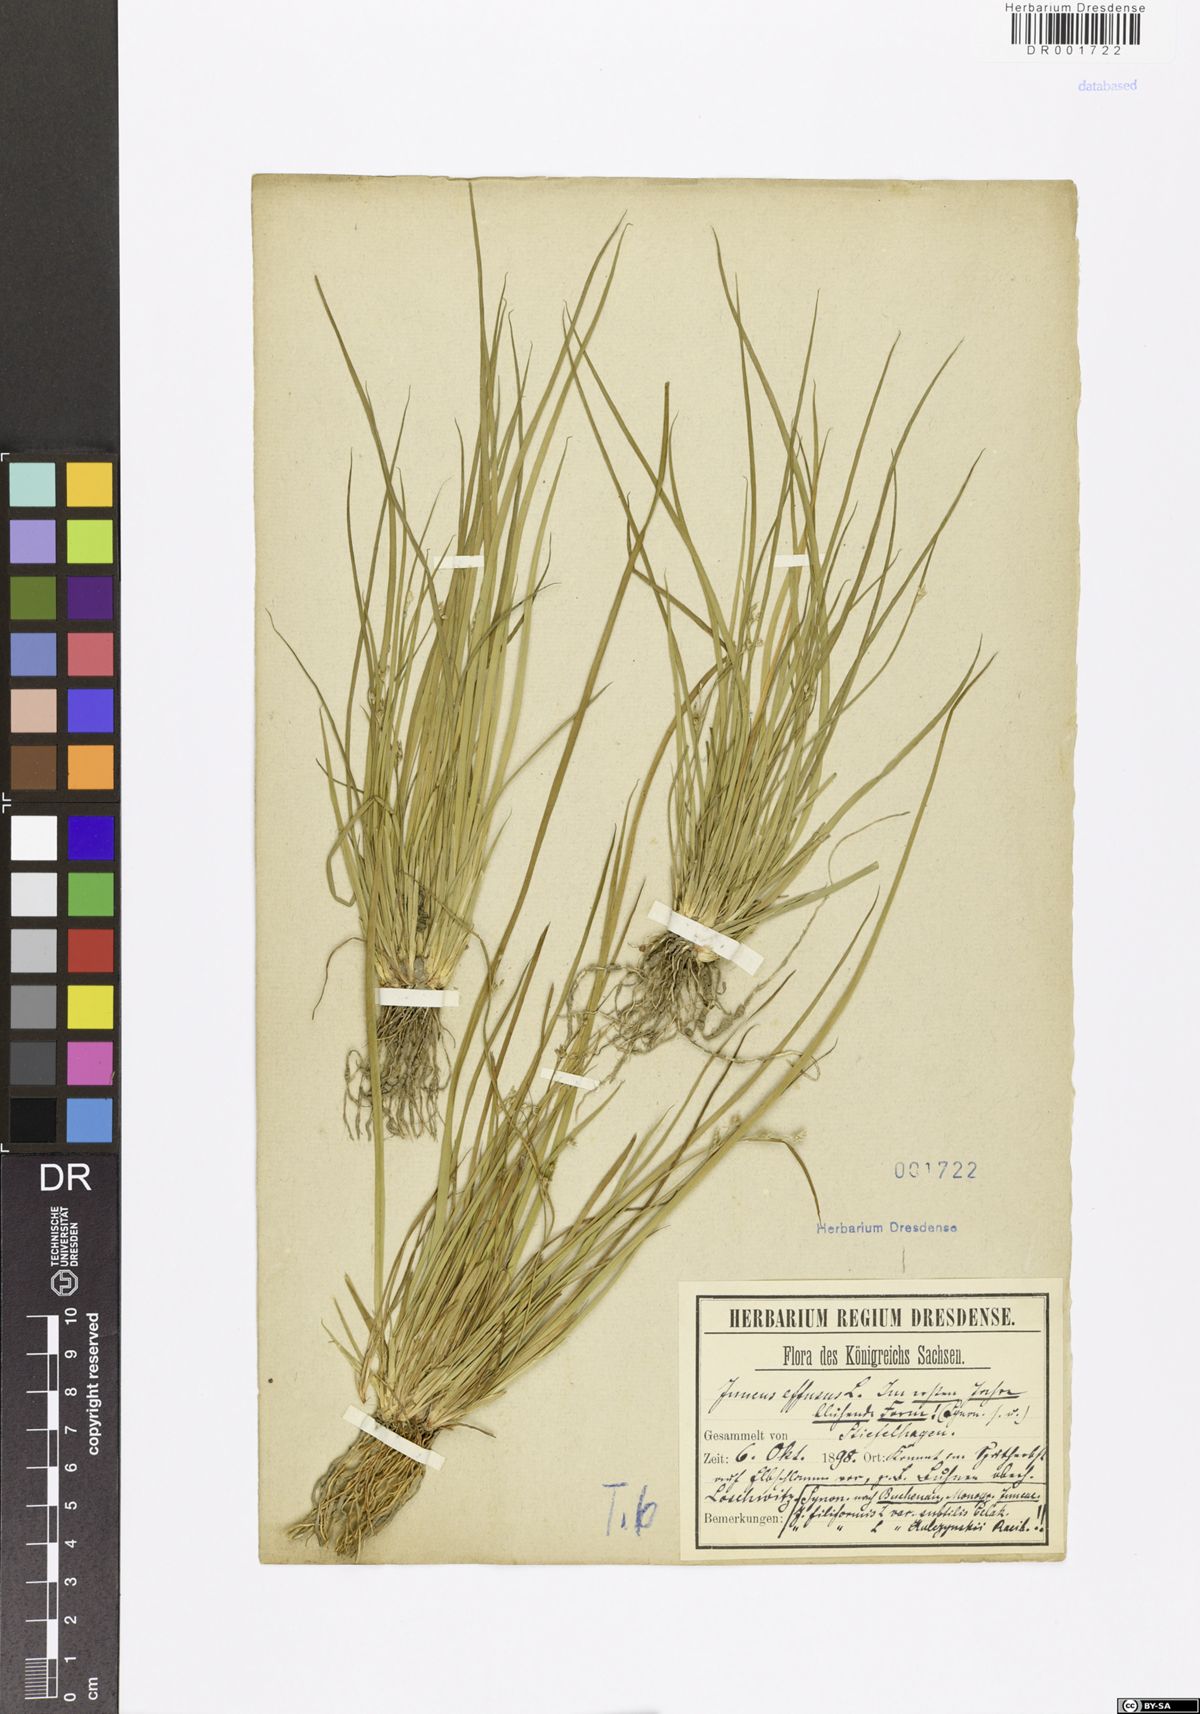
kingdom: Plantae
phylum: Tracheophyta
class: Liliopsida
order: Poales
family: Juncaceae
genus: Juncus
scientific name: Juncus effusus
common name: Soft rush
